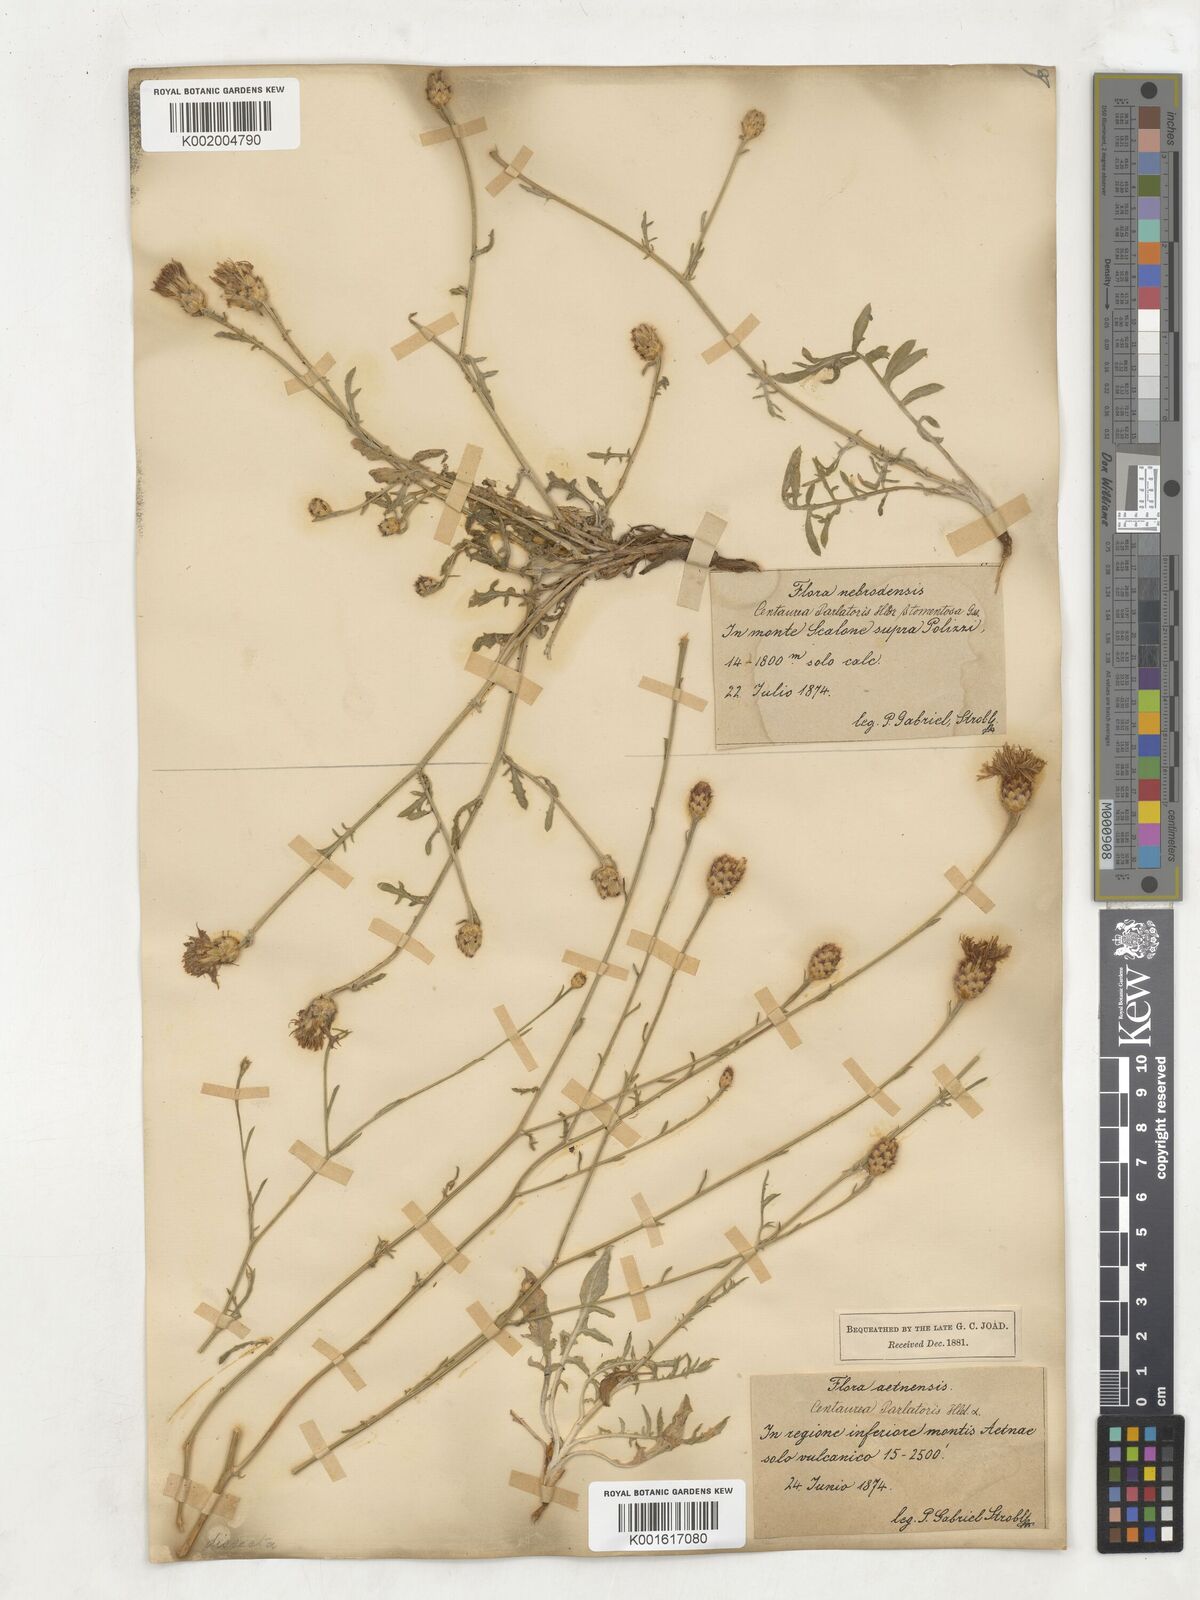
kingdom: Plantae
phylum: Tracheophyta
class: Magnoliopsida
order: Asterales
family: Asteraceae
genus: Centaurea
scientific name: Centaurea parlatoris
